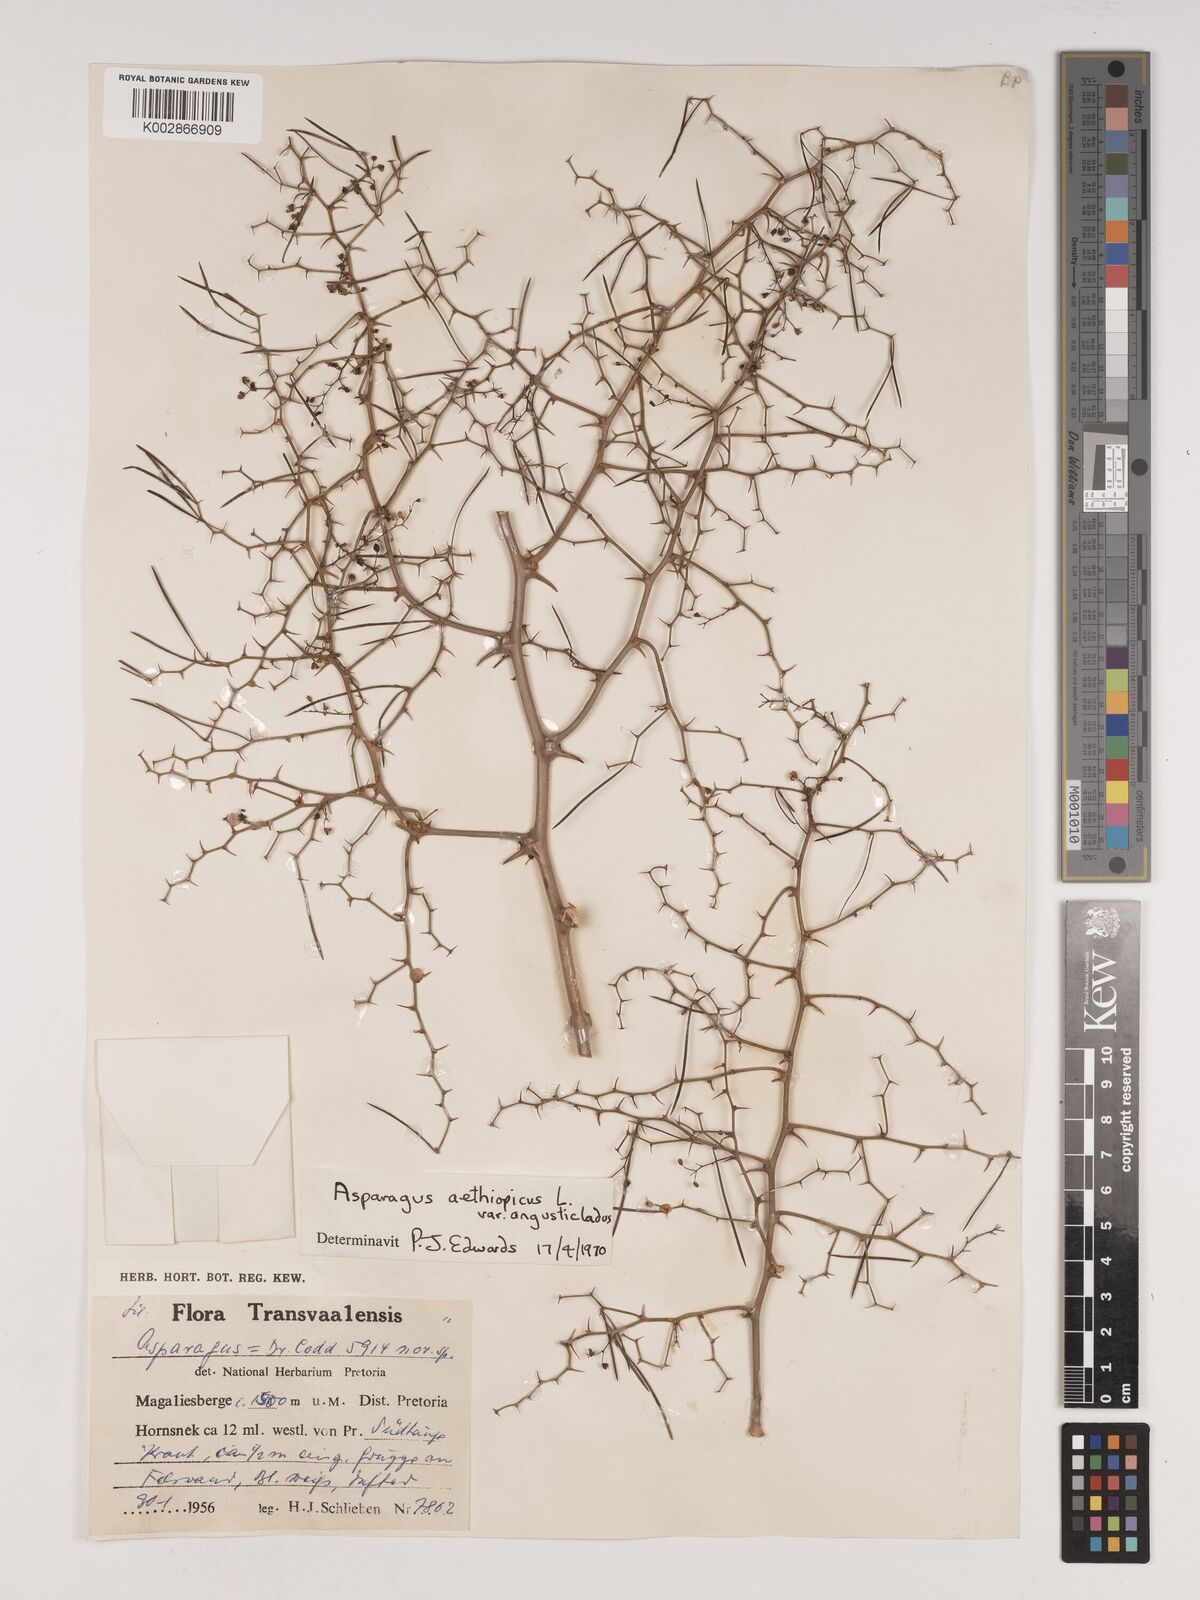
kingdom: Plantae
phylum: Tracheophyta
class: Liliopsida
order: Asparagales
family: Asparagaceae
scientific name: Asparagaceae
